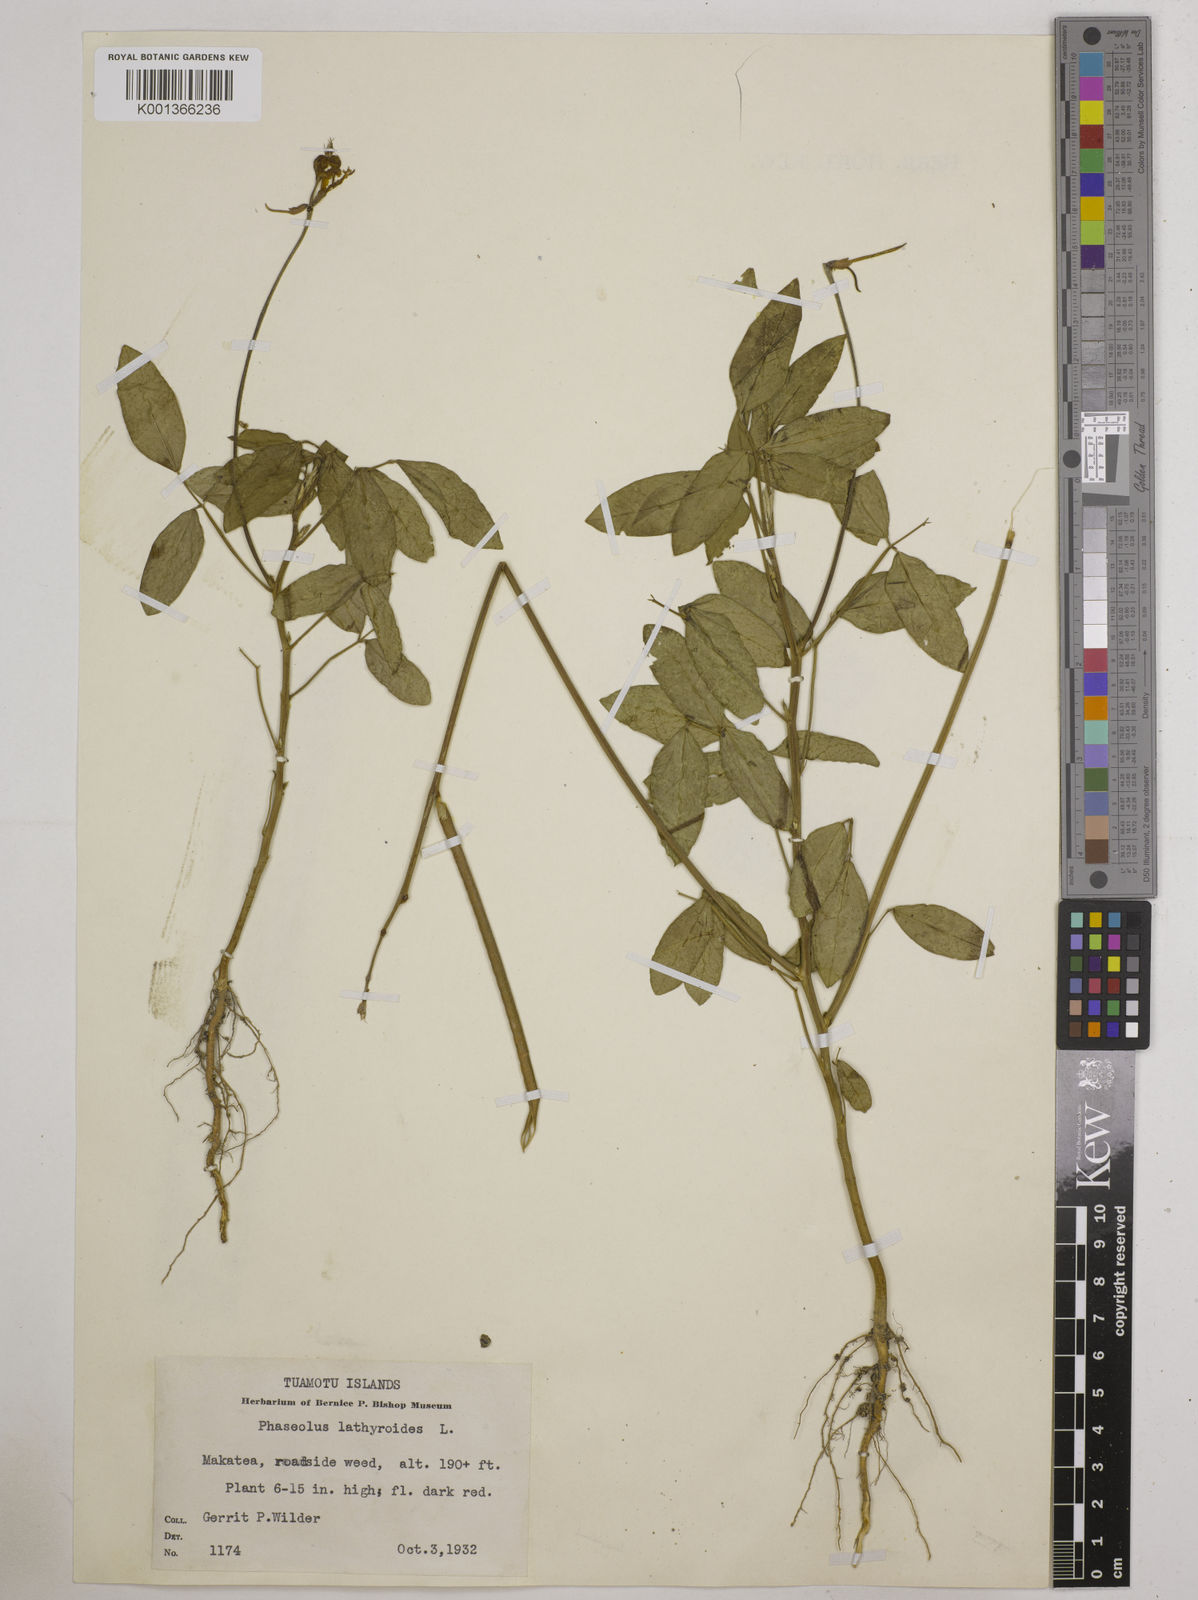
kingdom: Plantae
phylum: Tracheophyta
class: Magnoliopsida
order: Fabales
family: Fabaceae
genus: Macroptilium
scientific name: Macroptilium lathyroides
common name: Wild bushbean
